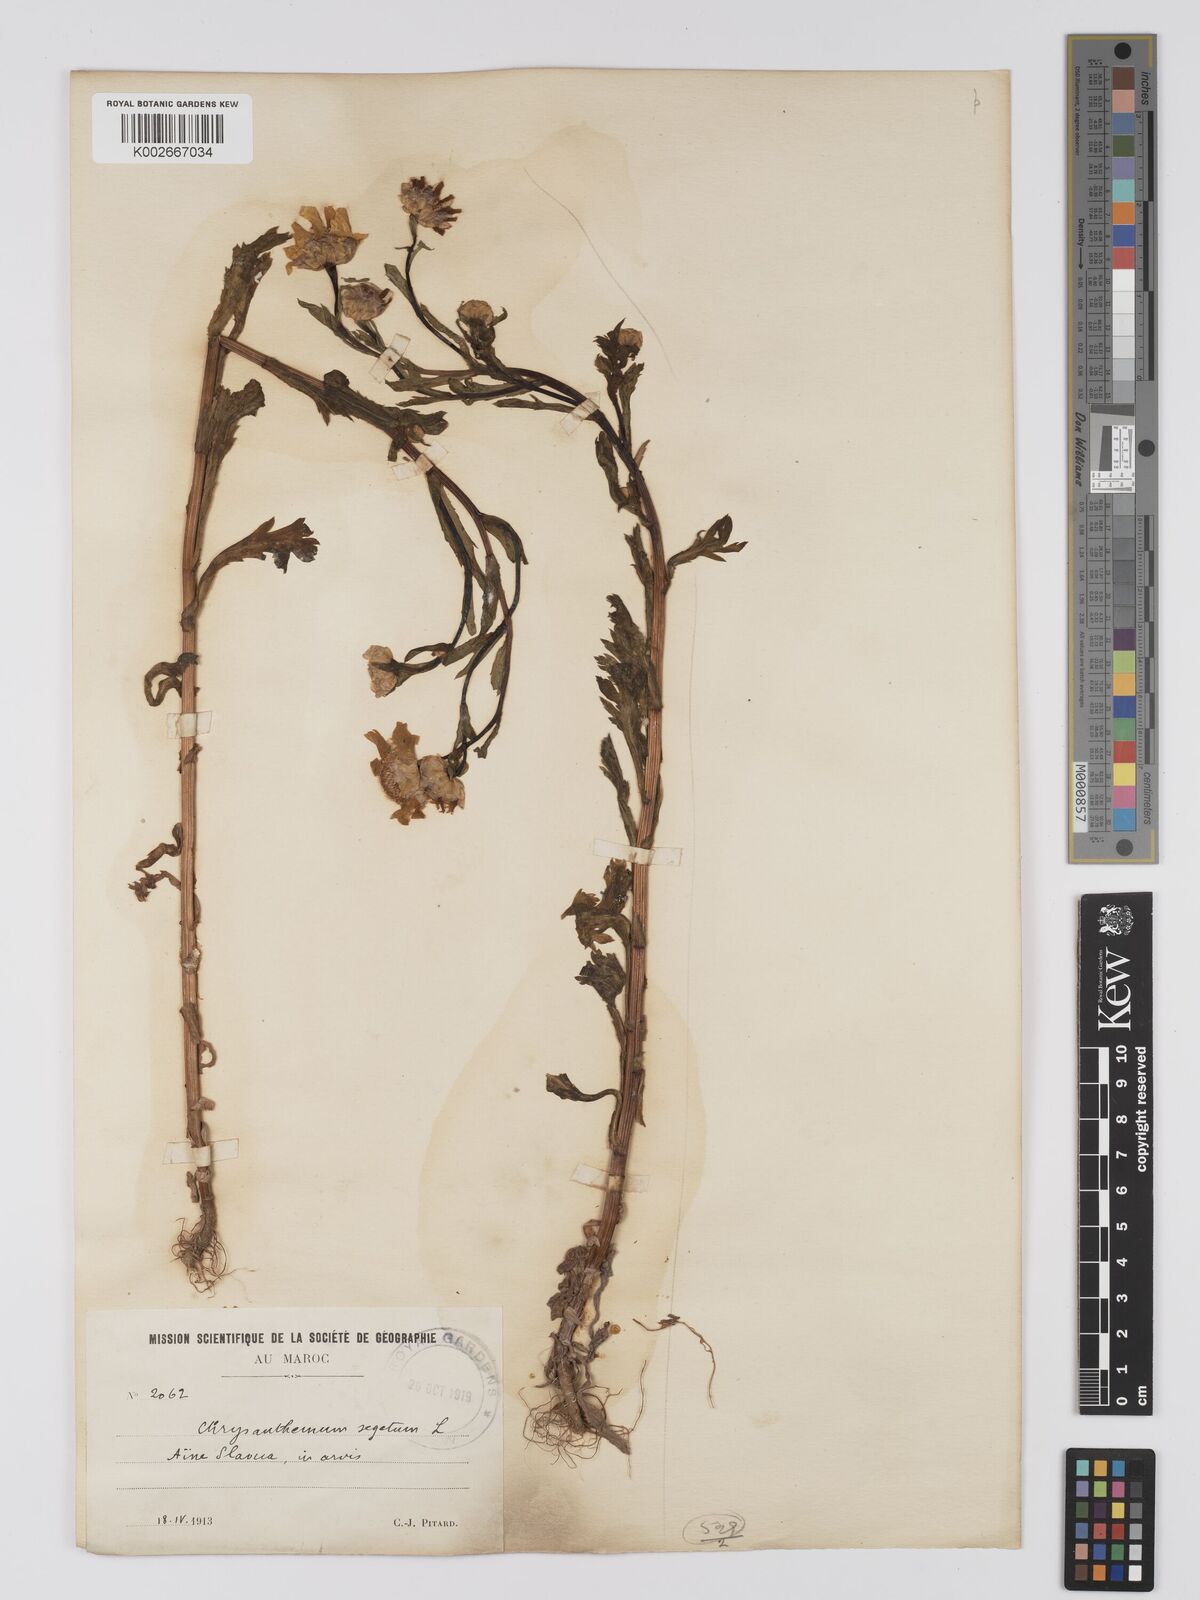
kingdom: Plantae
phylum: Tracheophyta
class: Magnoliopsida
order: Asterales
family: Asteraceae
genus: Glebionis
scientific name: Glebionis segetum
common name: Corndaisy
